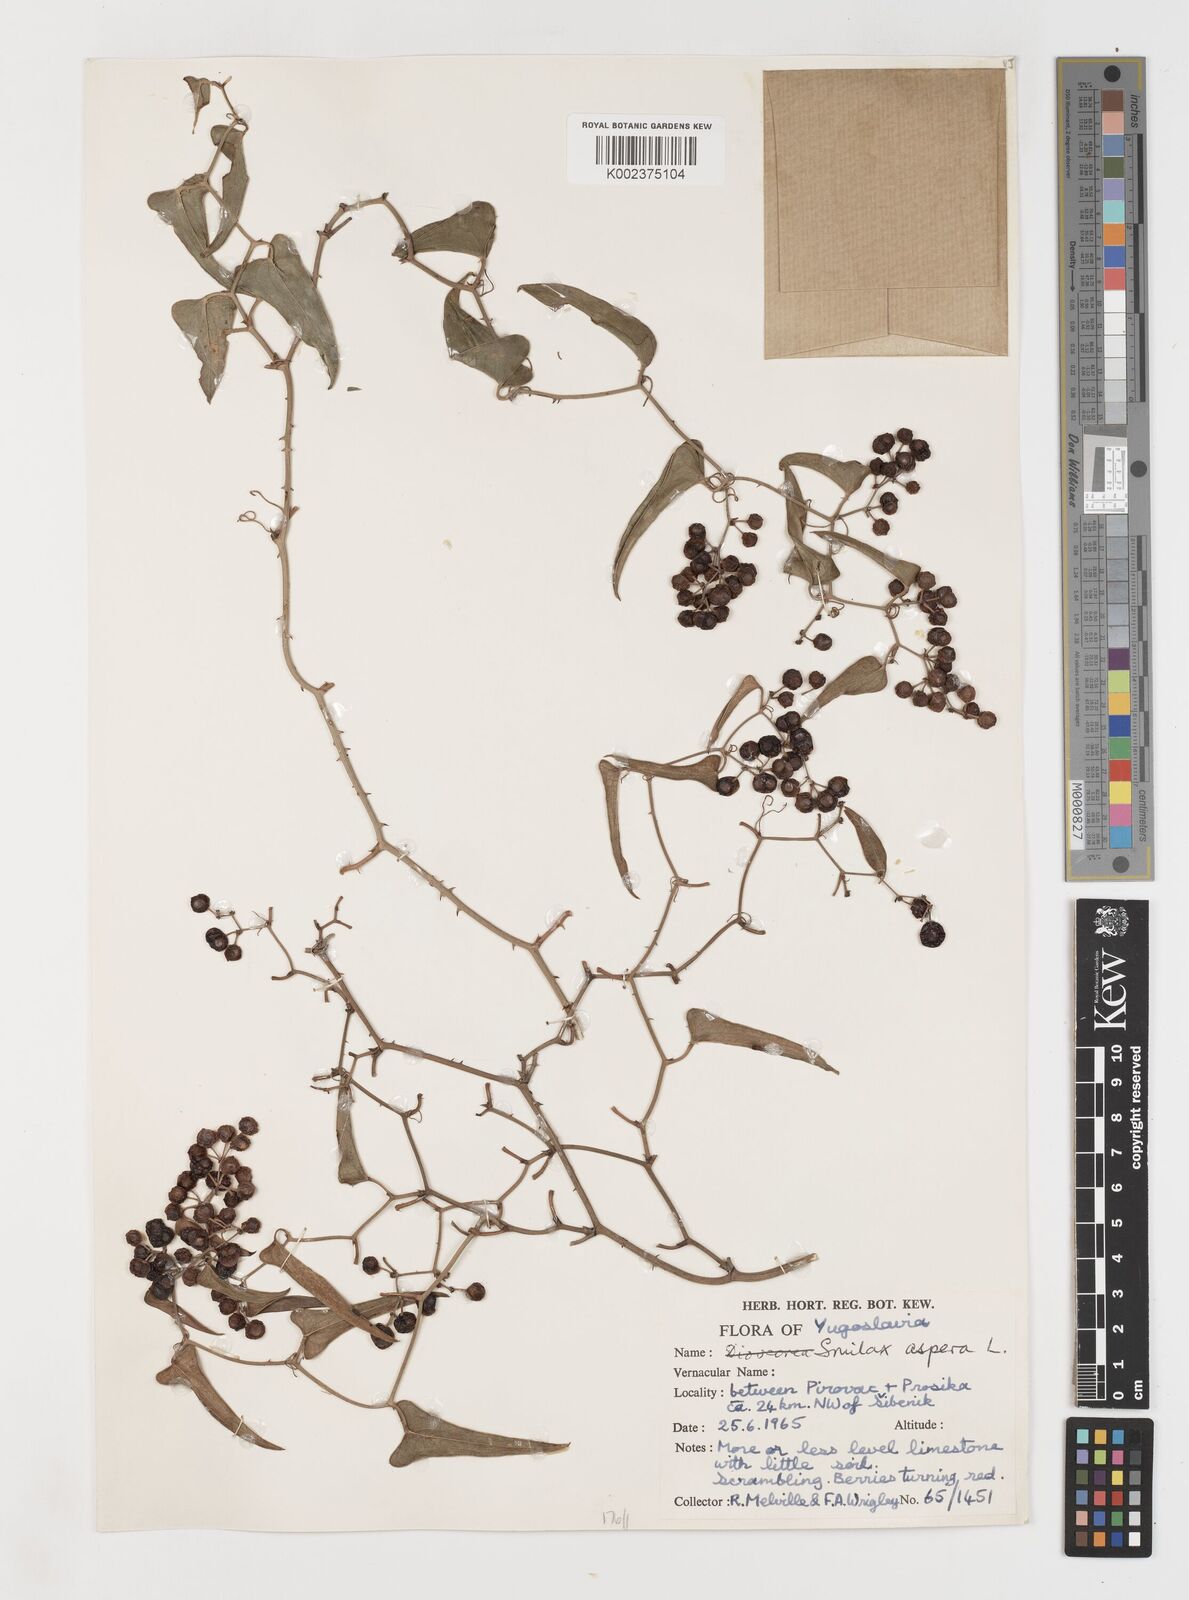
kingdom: Plantae
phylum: Tracheophyta
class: Liliopsida
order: Liliales
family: Smilacaceae
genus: Smilax
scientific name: Smilax aspera
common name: Common smilax
